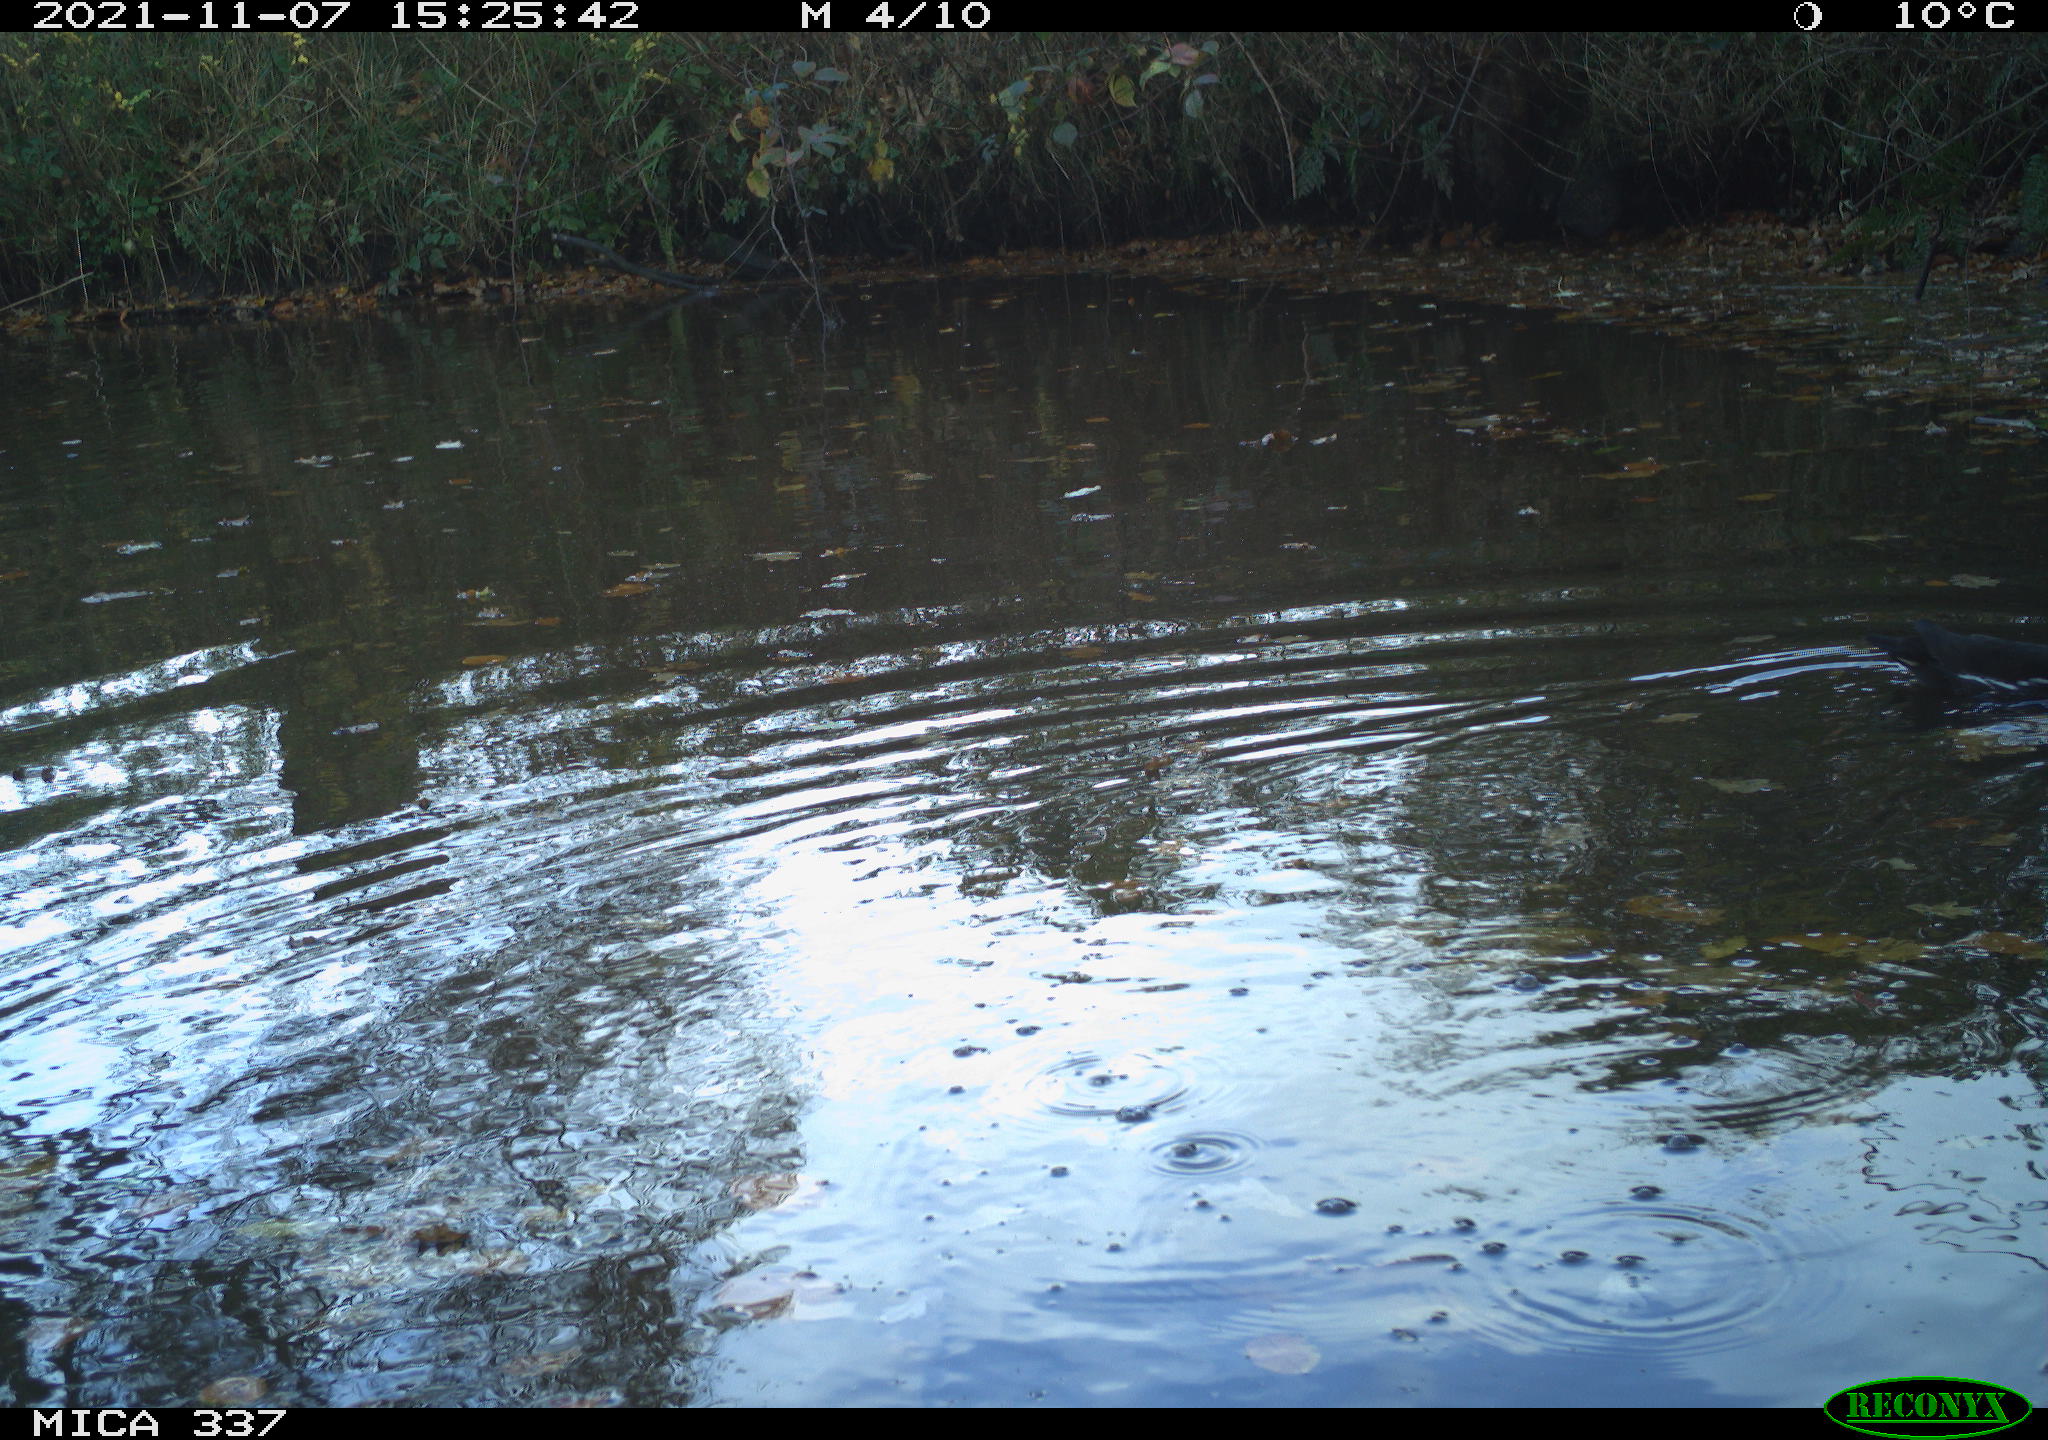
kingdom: Animalia
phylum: Chordata
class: Aves
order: Gruiformes
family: Rallidae
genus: Gallinula
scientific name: Gallinula chloropus
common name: Common moorhen
